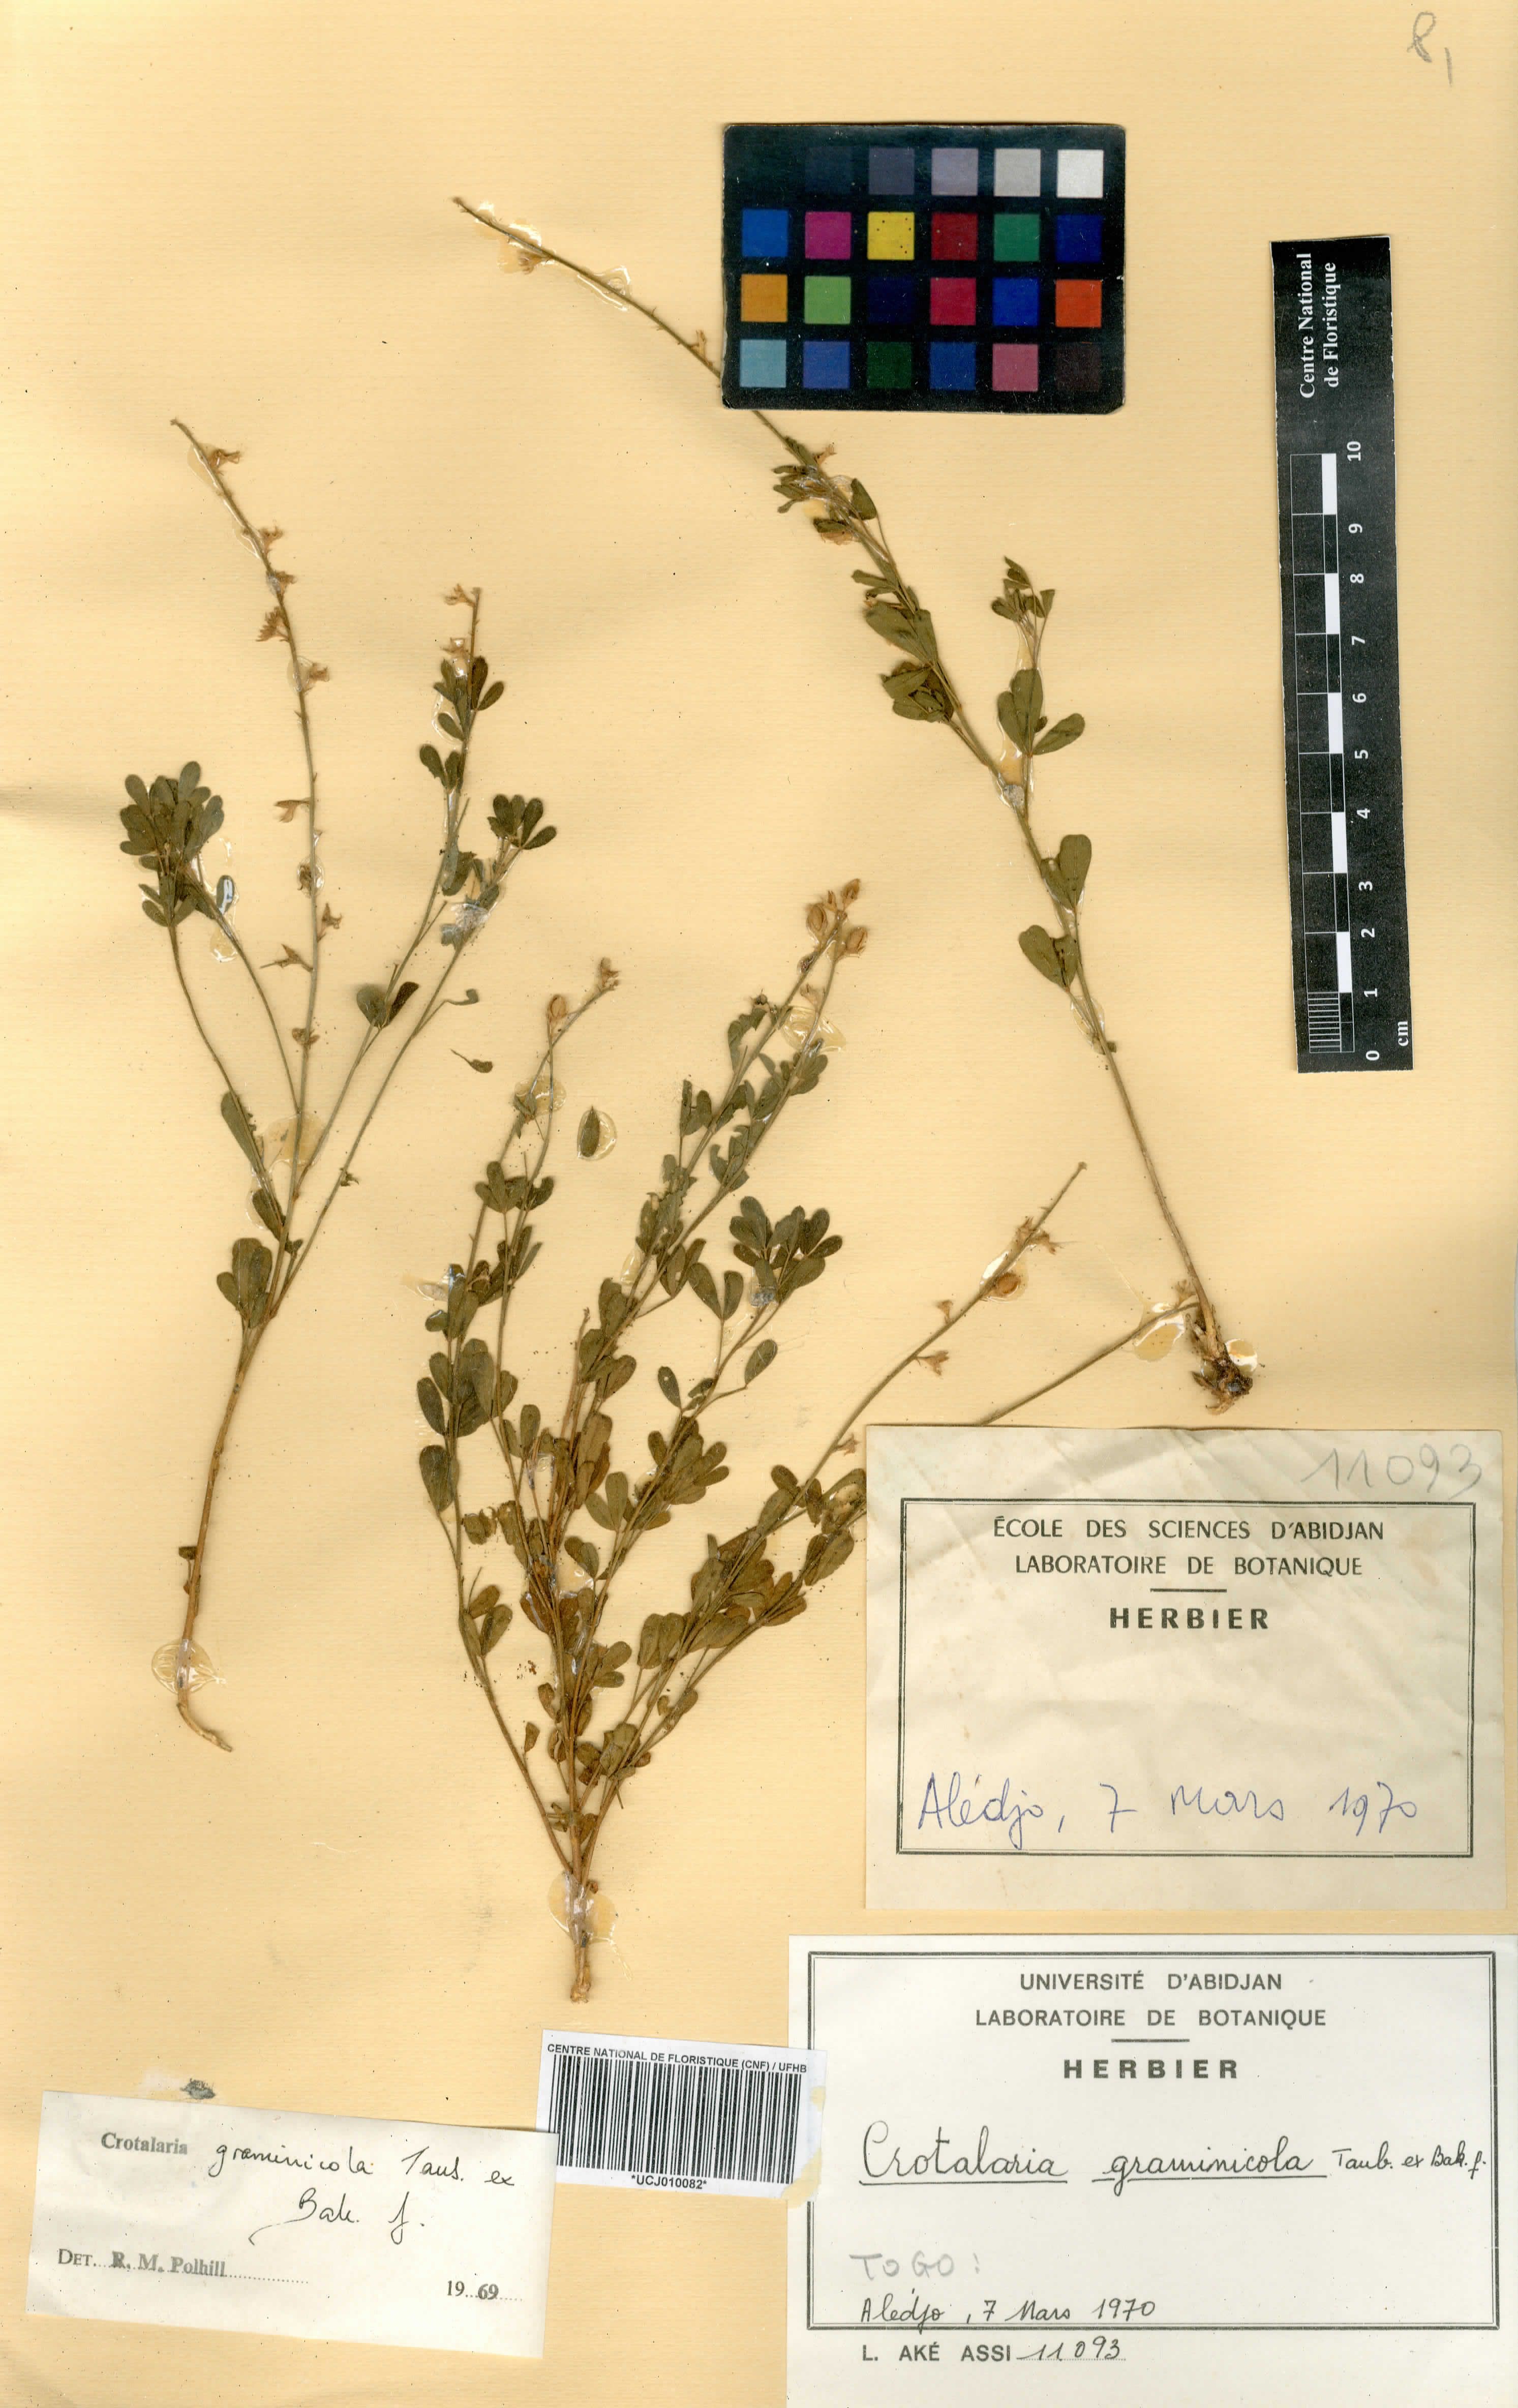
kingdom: Plantae
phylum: Tracheophyta
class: Magnoliopsida
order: Fabales
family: Fabaceae
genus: Crotalaria
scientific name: Crotalaria graminicola
